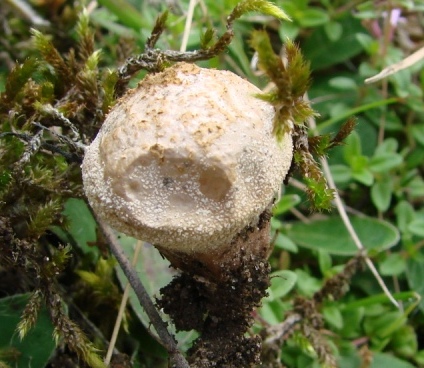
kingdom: Fungi
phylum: Basidiomycota
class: Agaricomycetes
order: Agaricales
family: Lycoperdaceae
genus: Lycoperdon
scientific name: Lycoperdon lividum
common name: mark-støvbold
